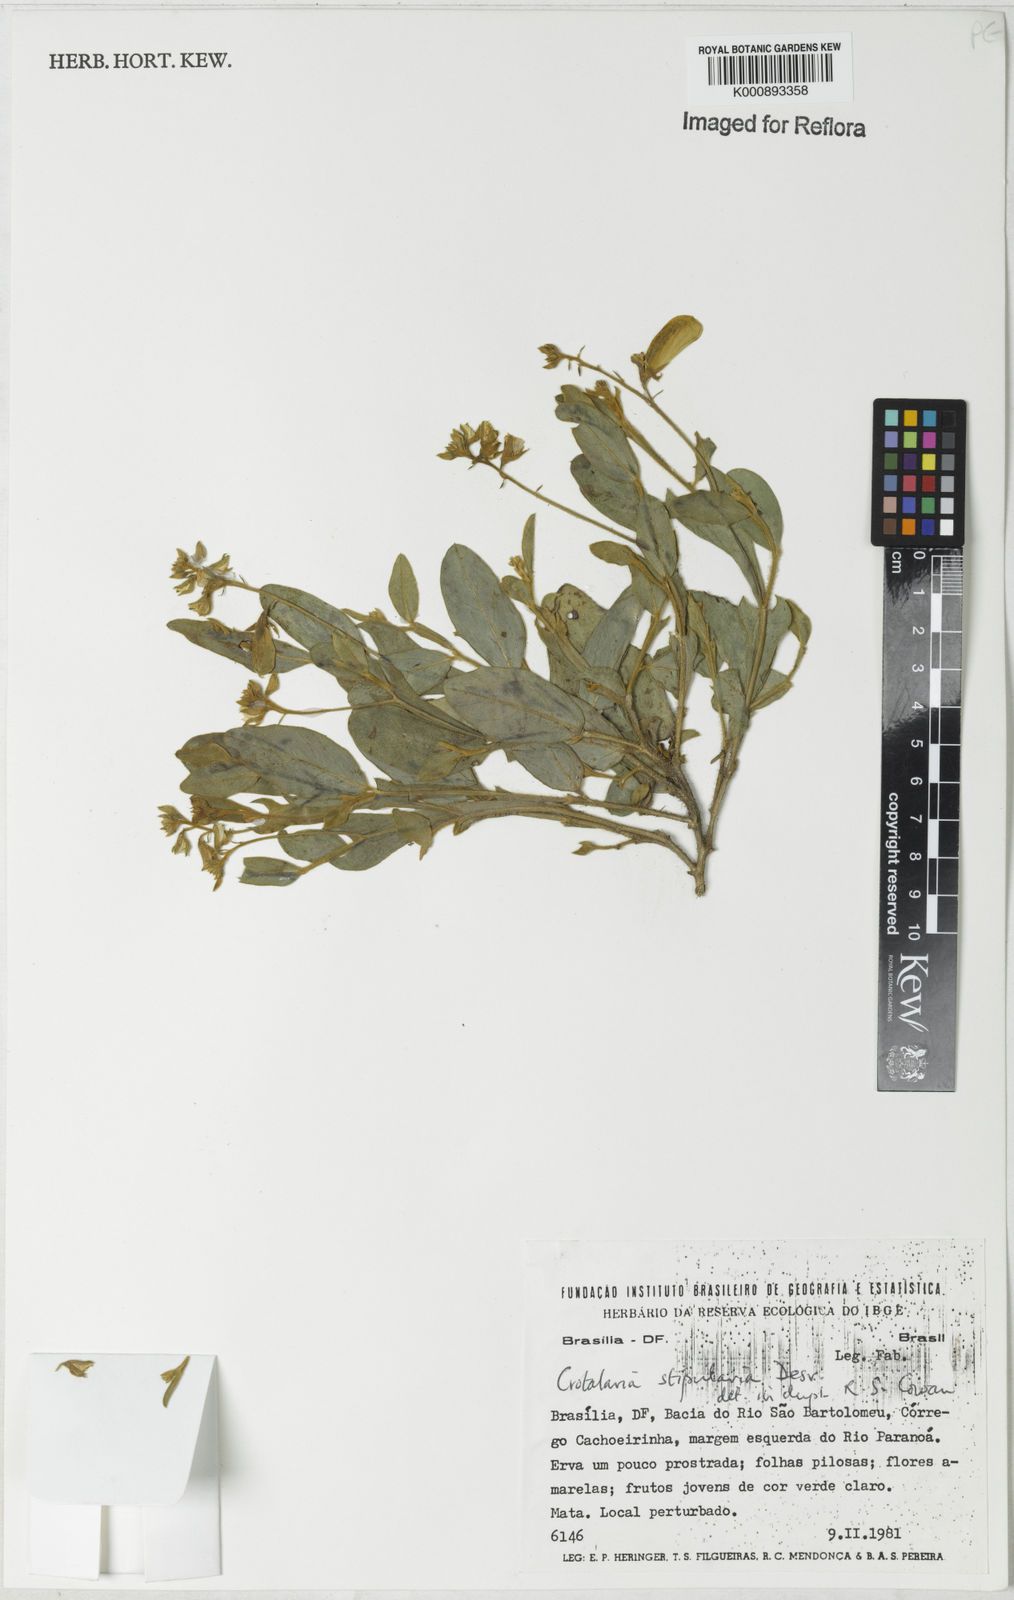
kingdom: Plantae
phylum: Tracheophyta
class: Magnoliopsida
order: Fabales
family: Fabaceae
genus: Crotalaria
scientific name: Crotalaria stipularia
